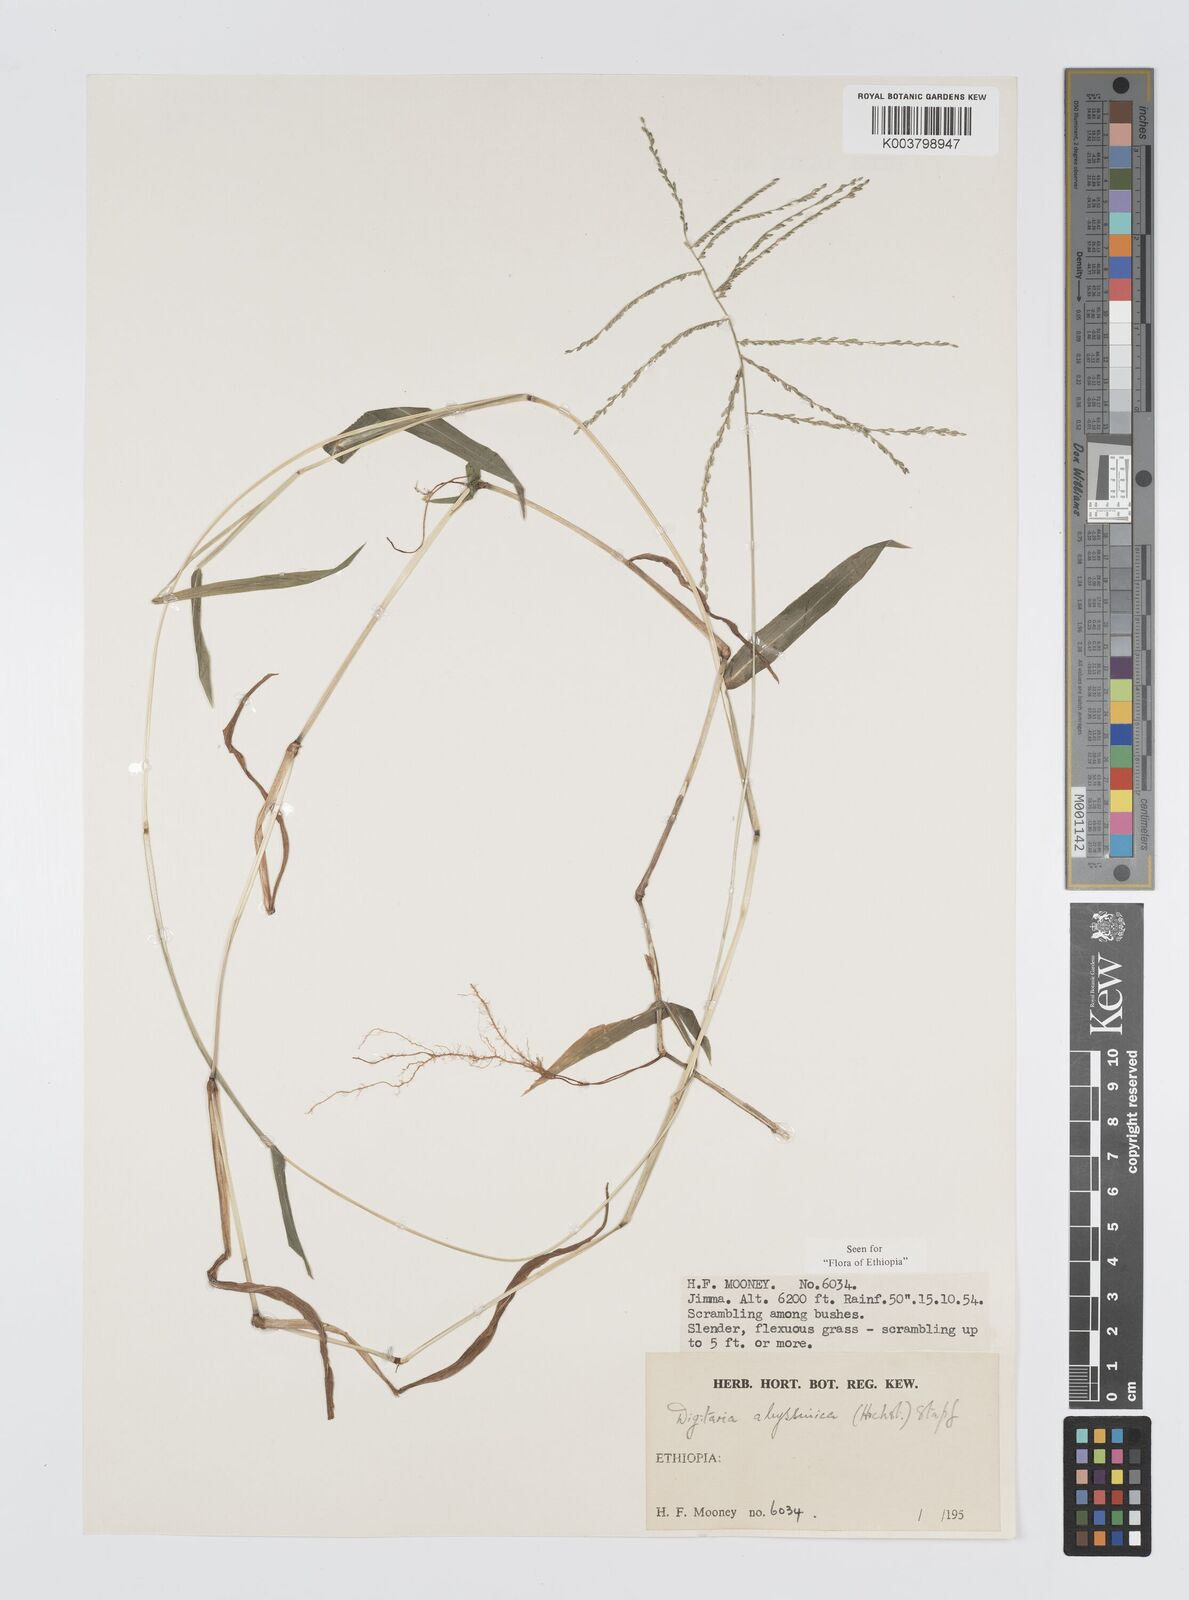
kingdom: Plantae
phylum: Tracheophyta
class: Liliopsida
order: Poales
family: Poaceae
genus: Digitaria
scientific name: Digitaria abyssinica
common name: African couchgrass
